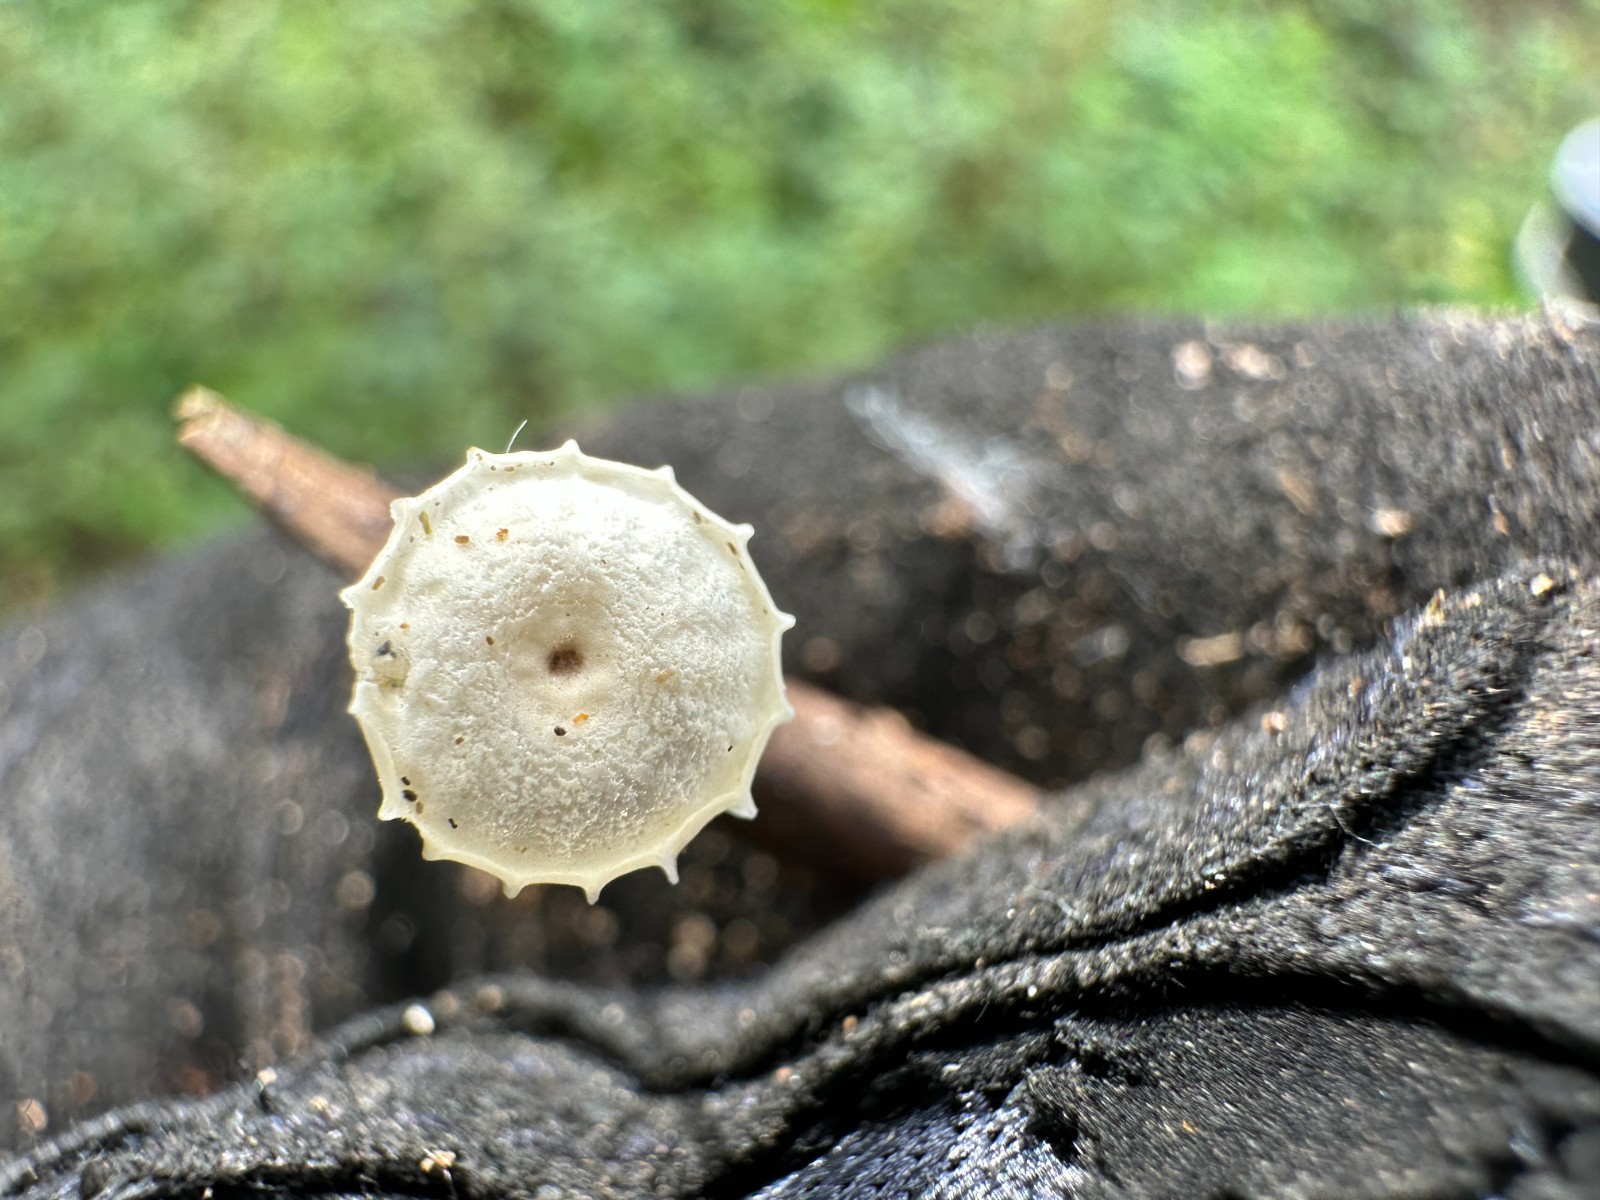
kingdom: Fungi
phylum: Basidiomycota
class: Agaricomycetes
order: Agaricales
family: Marasmiaceae
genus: Marasmius
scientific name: Marasmius rotula
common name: hjul-bruskhat
